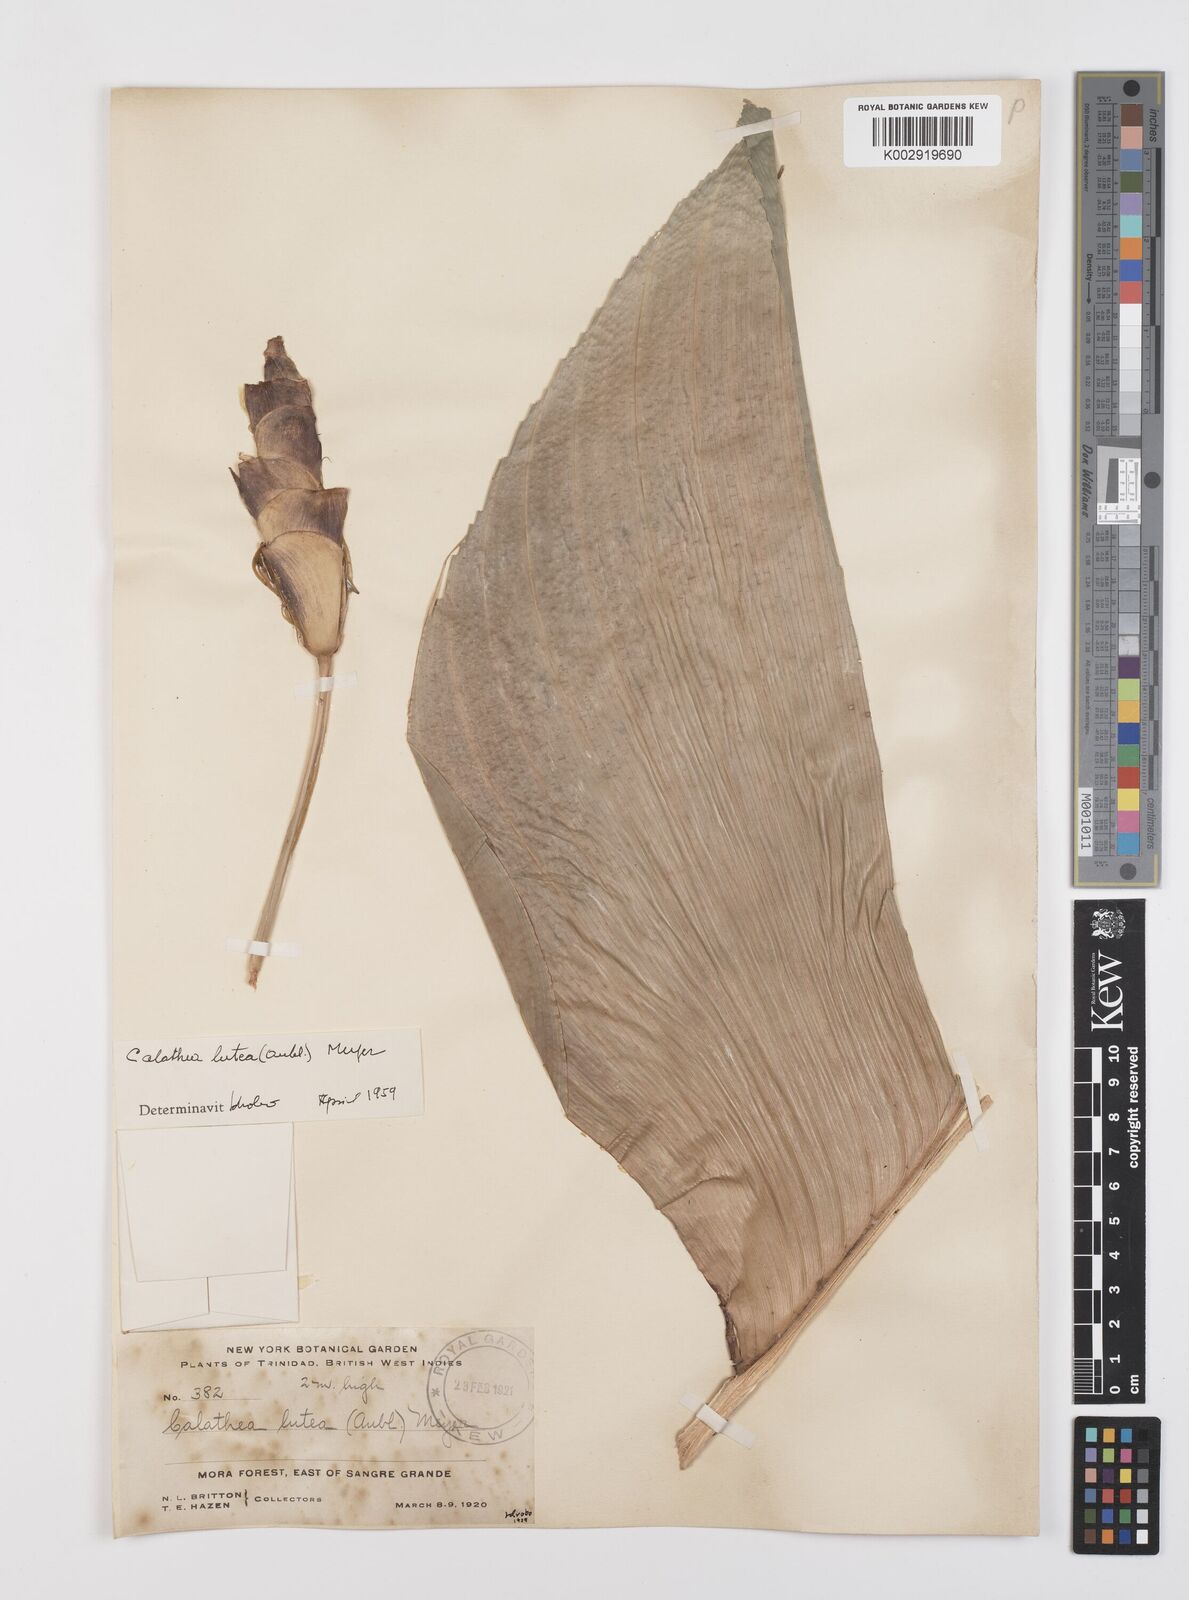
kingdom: Plantae
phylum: Tracheophyta
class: Liliopsida
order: Zingiberales
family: Marantaceae
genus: Calathea
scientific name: Calathea lutea
